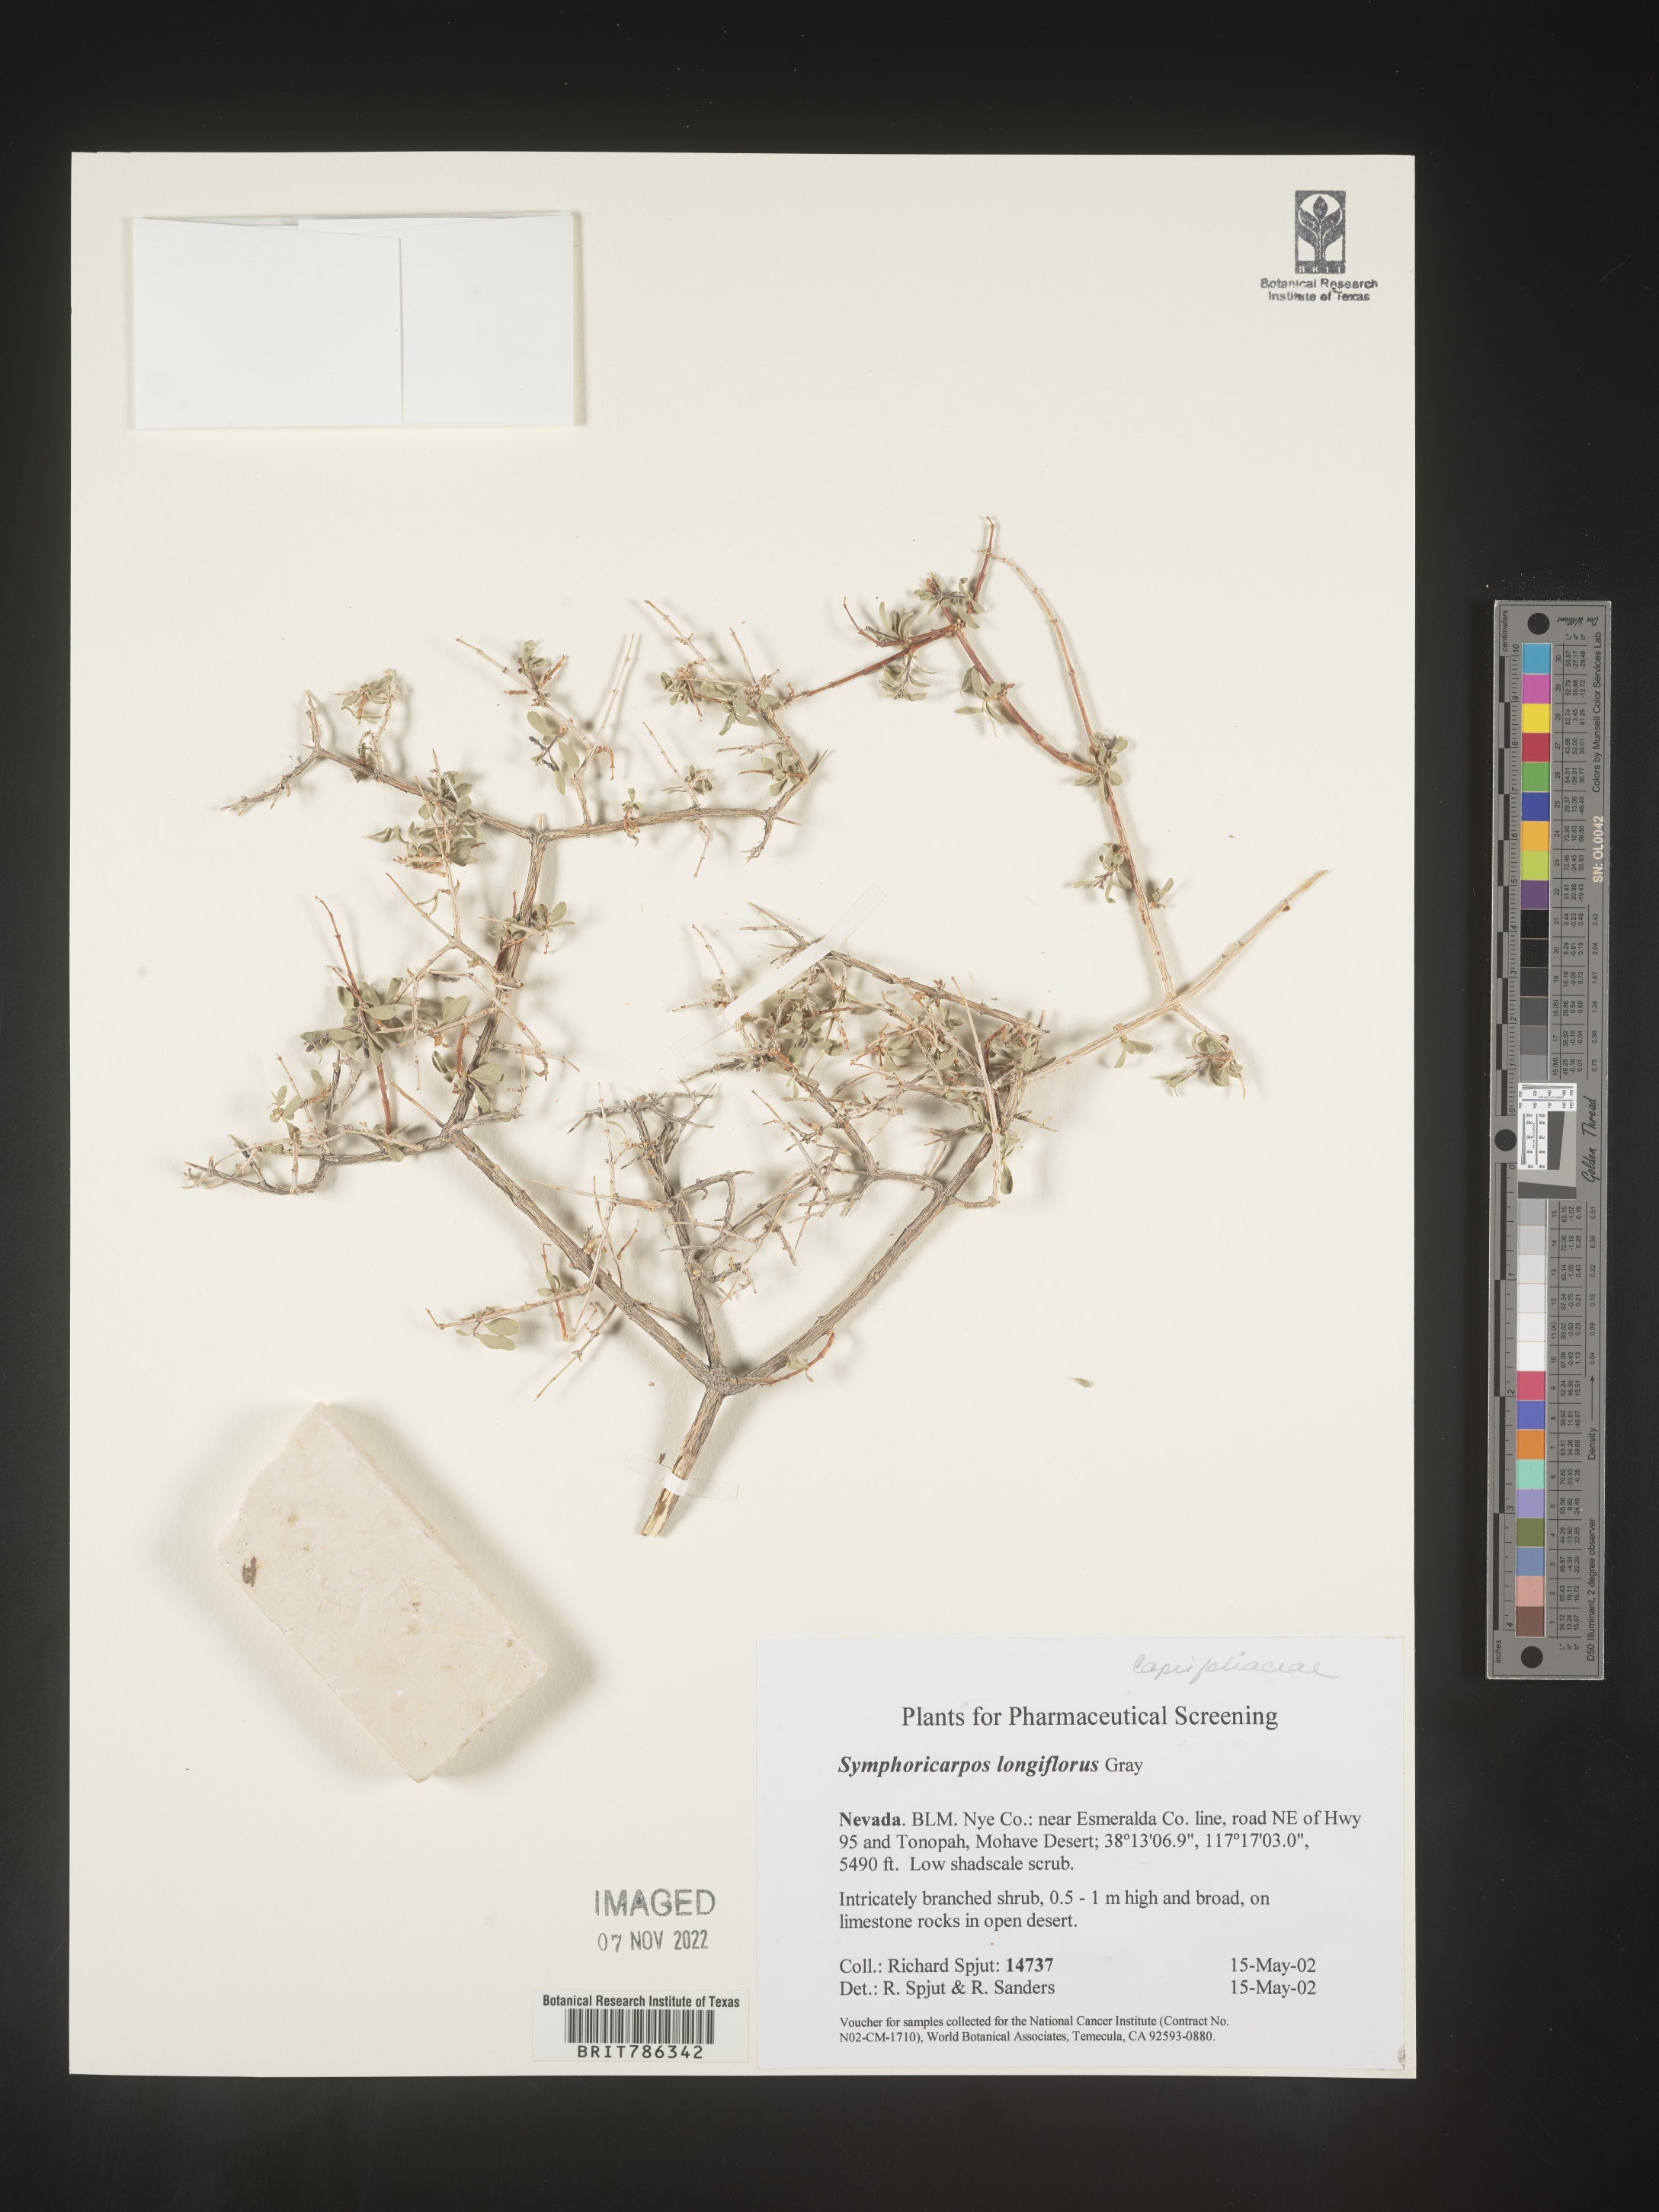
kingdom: Plantae
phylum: Tracheophyta
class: Magnoliopsida
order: Dipsacales
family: Caprifoliaceae
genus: Symphoricarpos
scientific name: Symphoricarpos
